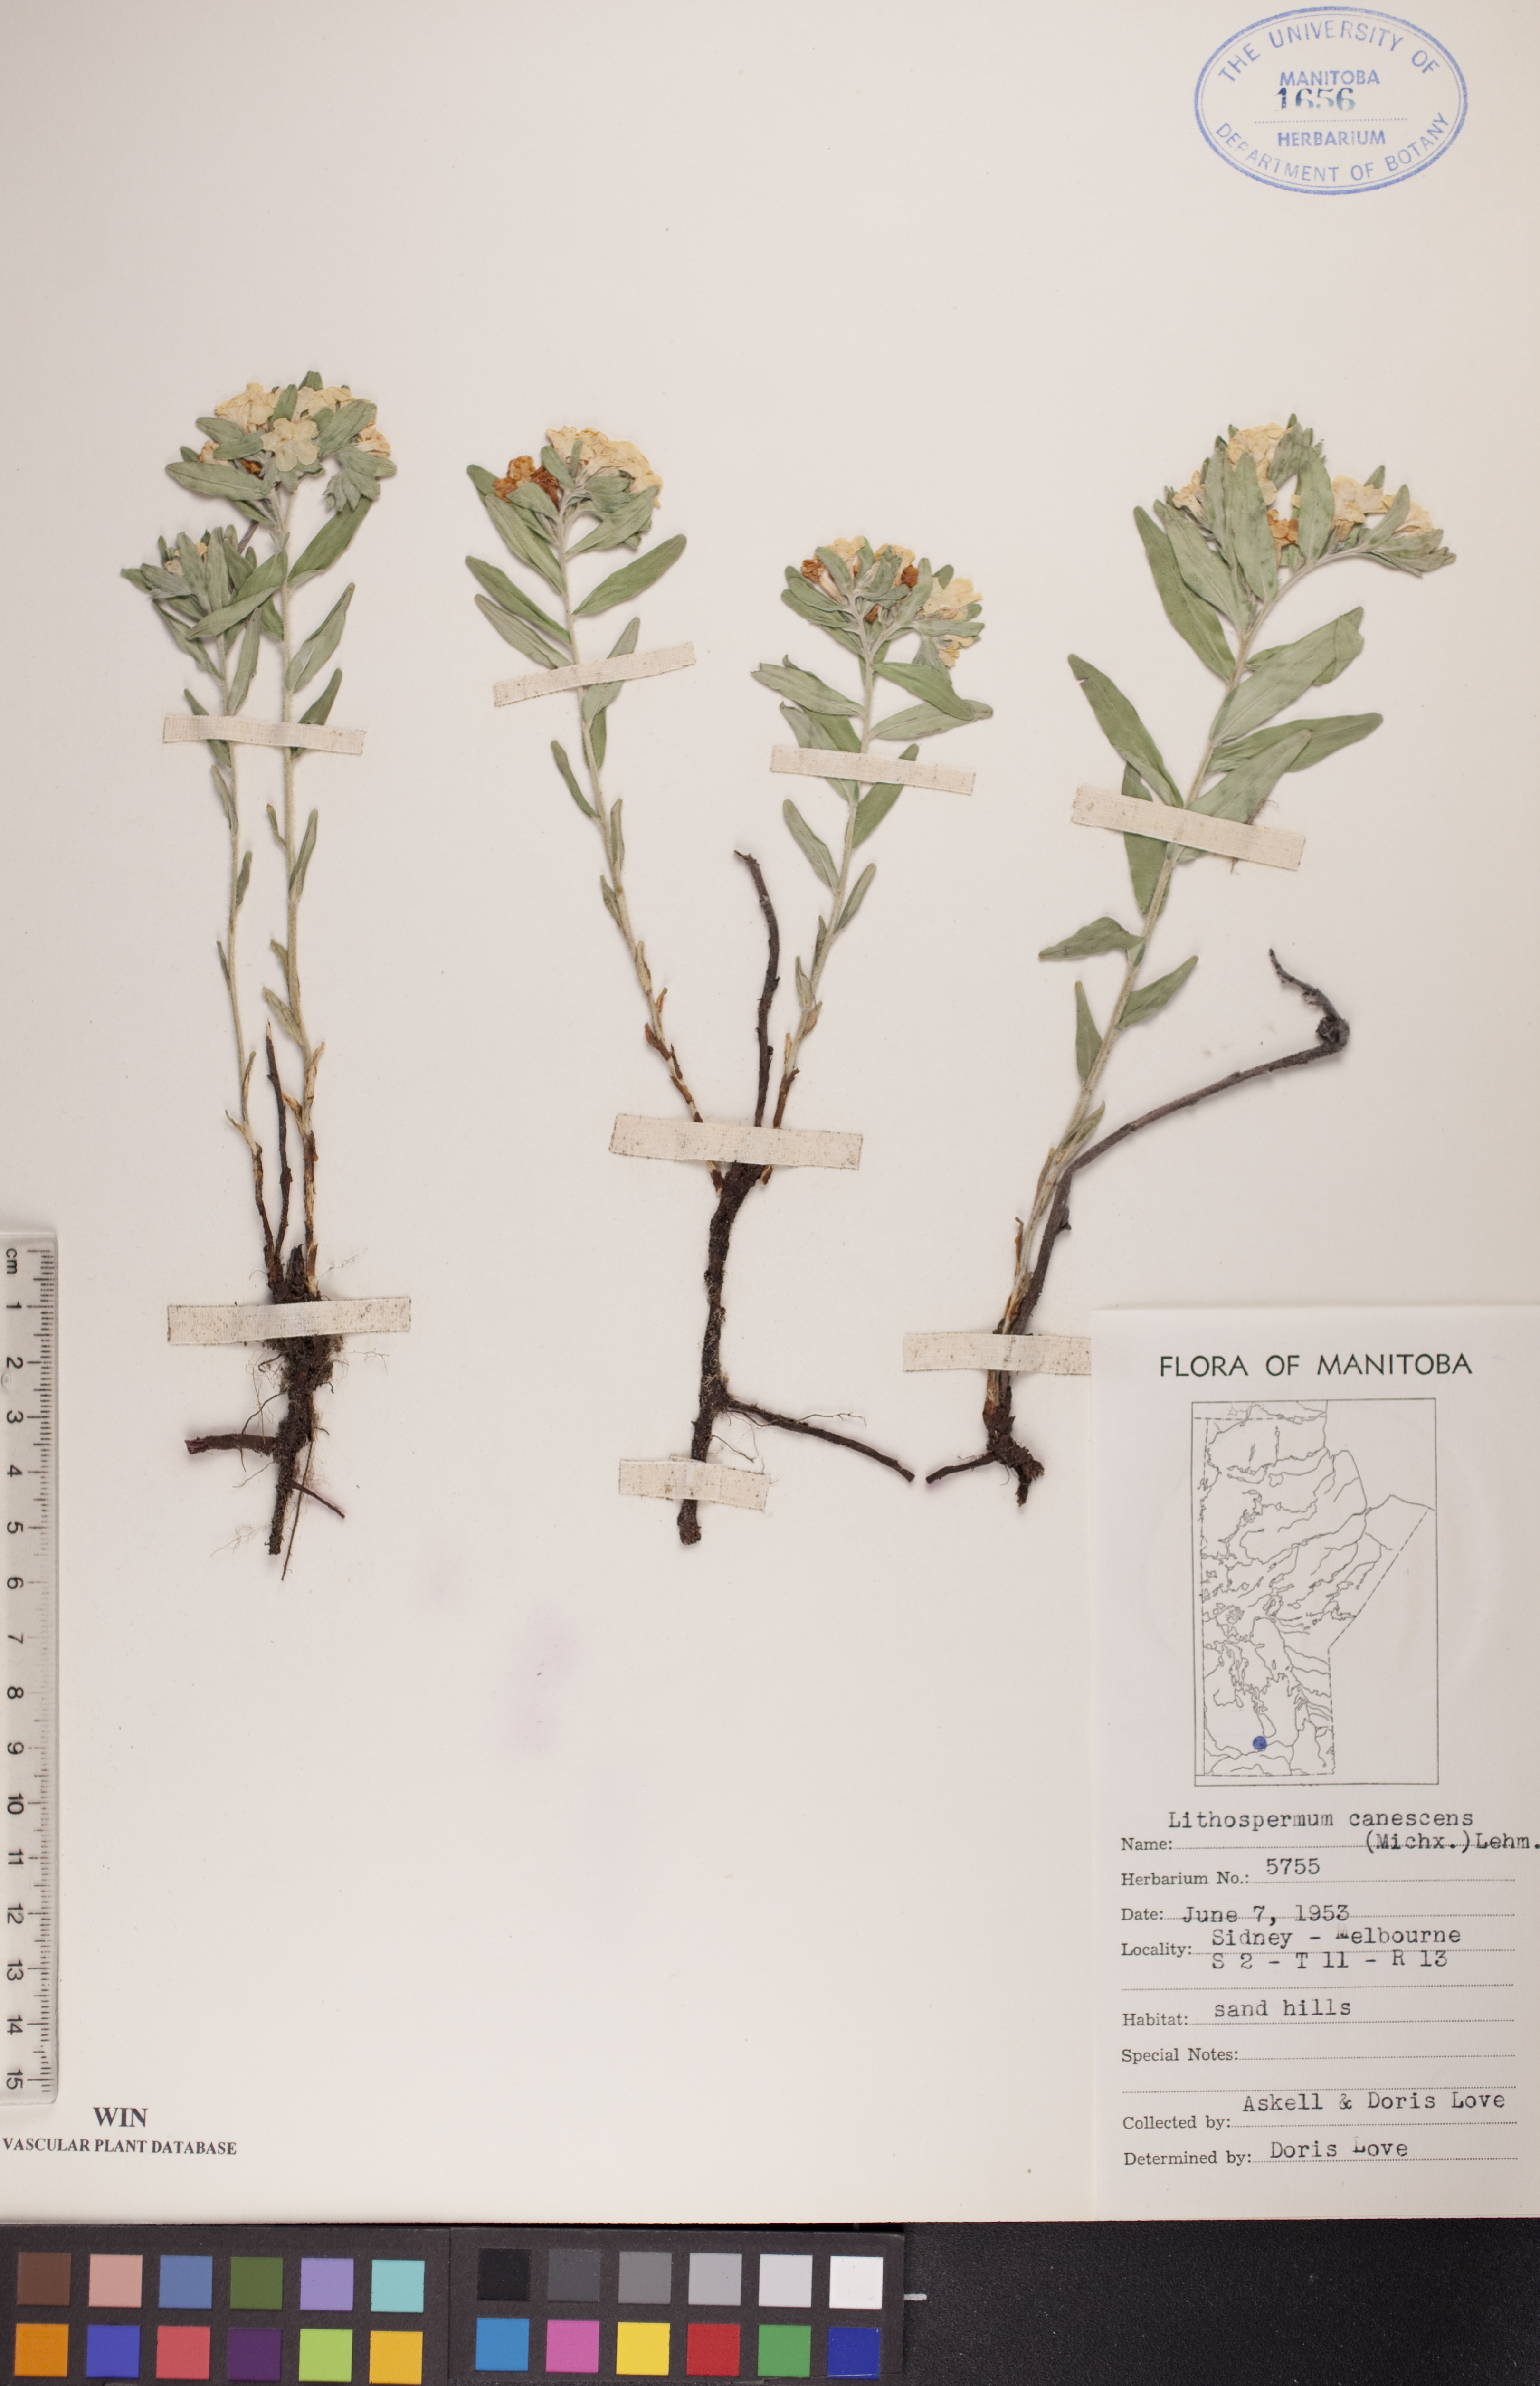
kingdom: Plantae
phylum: Tracheophyta
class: Magnoliopsida
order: Boraginales
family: Boraginaceae
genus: Lithospermum
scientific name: Lithospermum canescens
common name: Hoary puccoon
